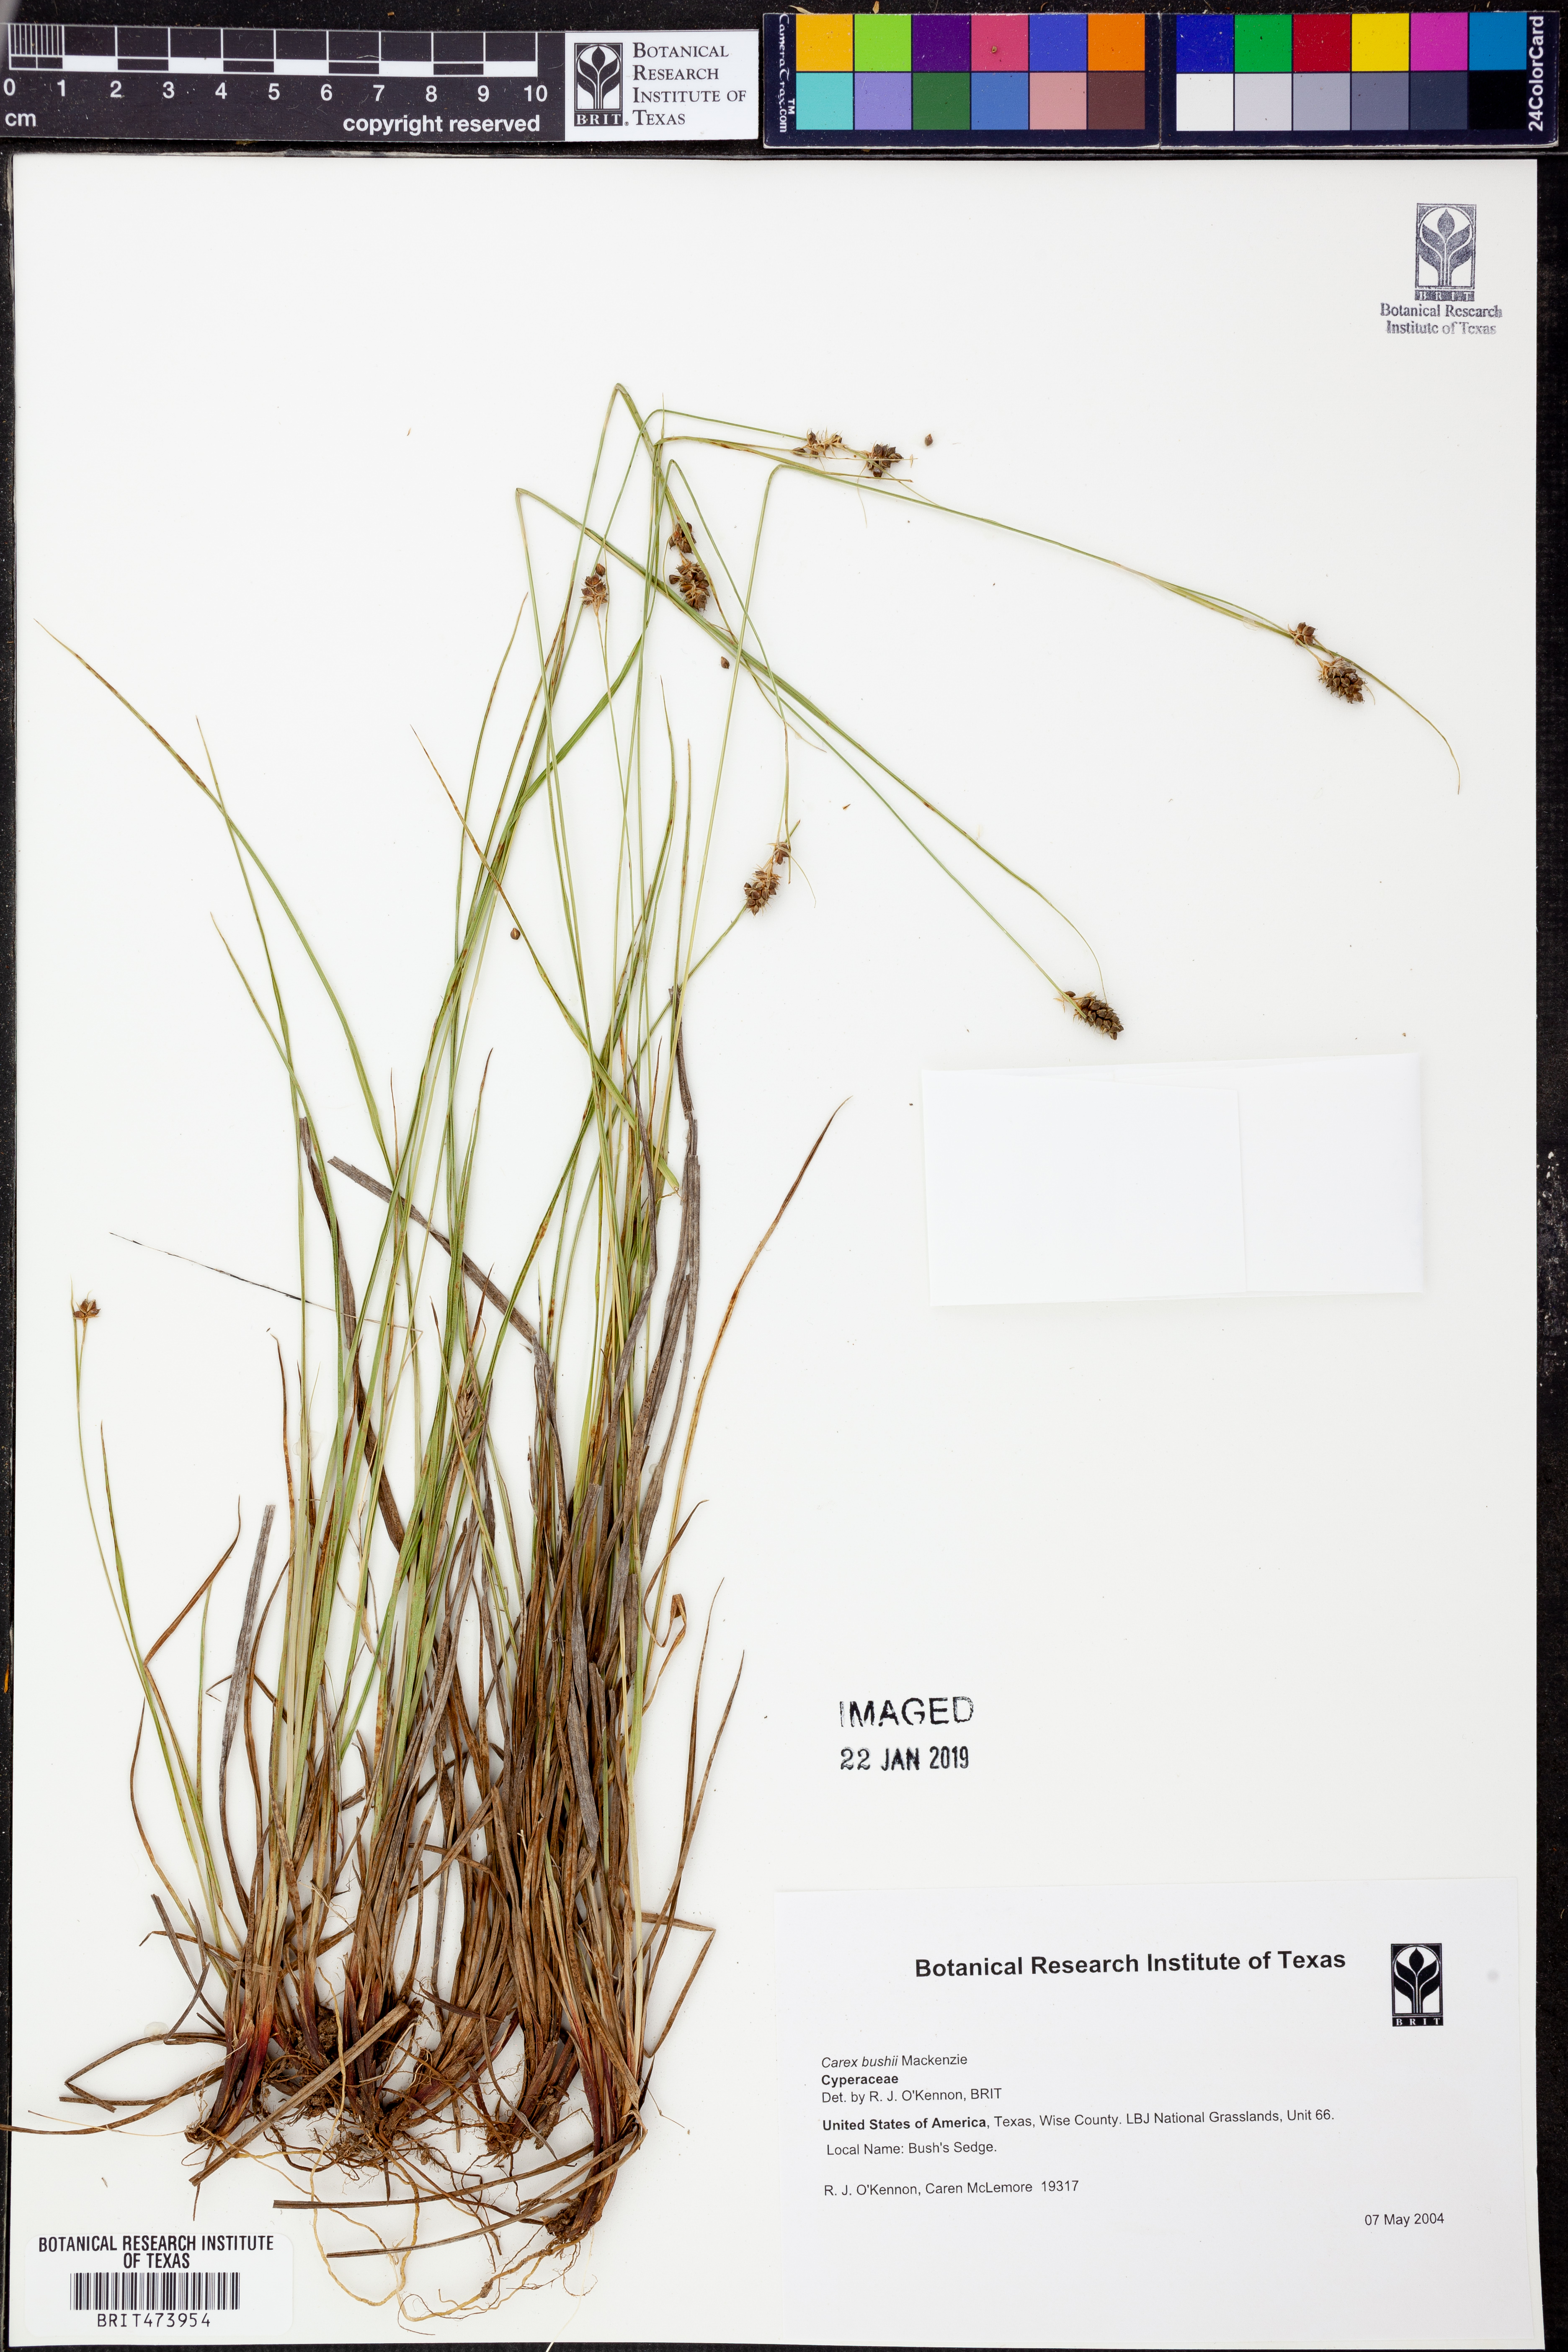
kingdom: Plantae
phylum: Tracheophyta
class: Liliopsida
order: Poales
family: Cyperaceae
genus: Carex
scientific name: Carex bushii
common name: Bush's sedge
